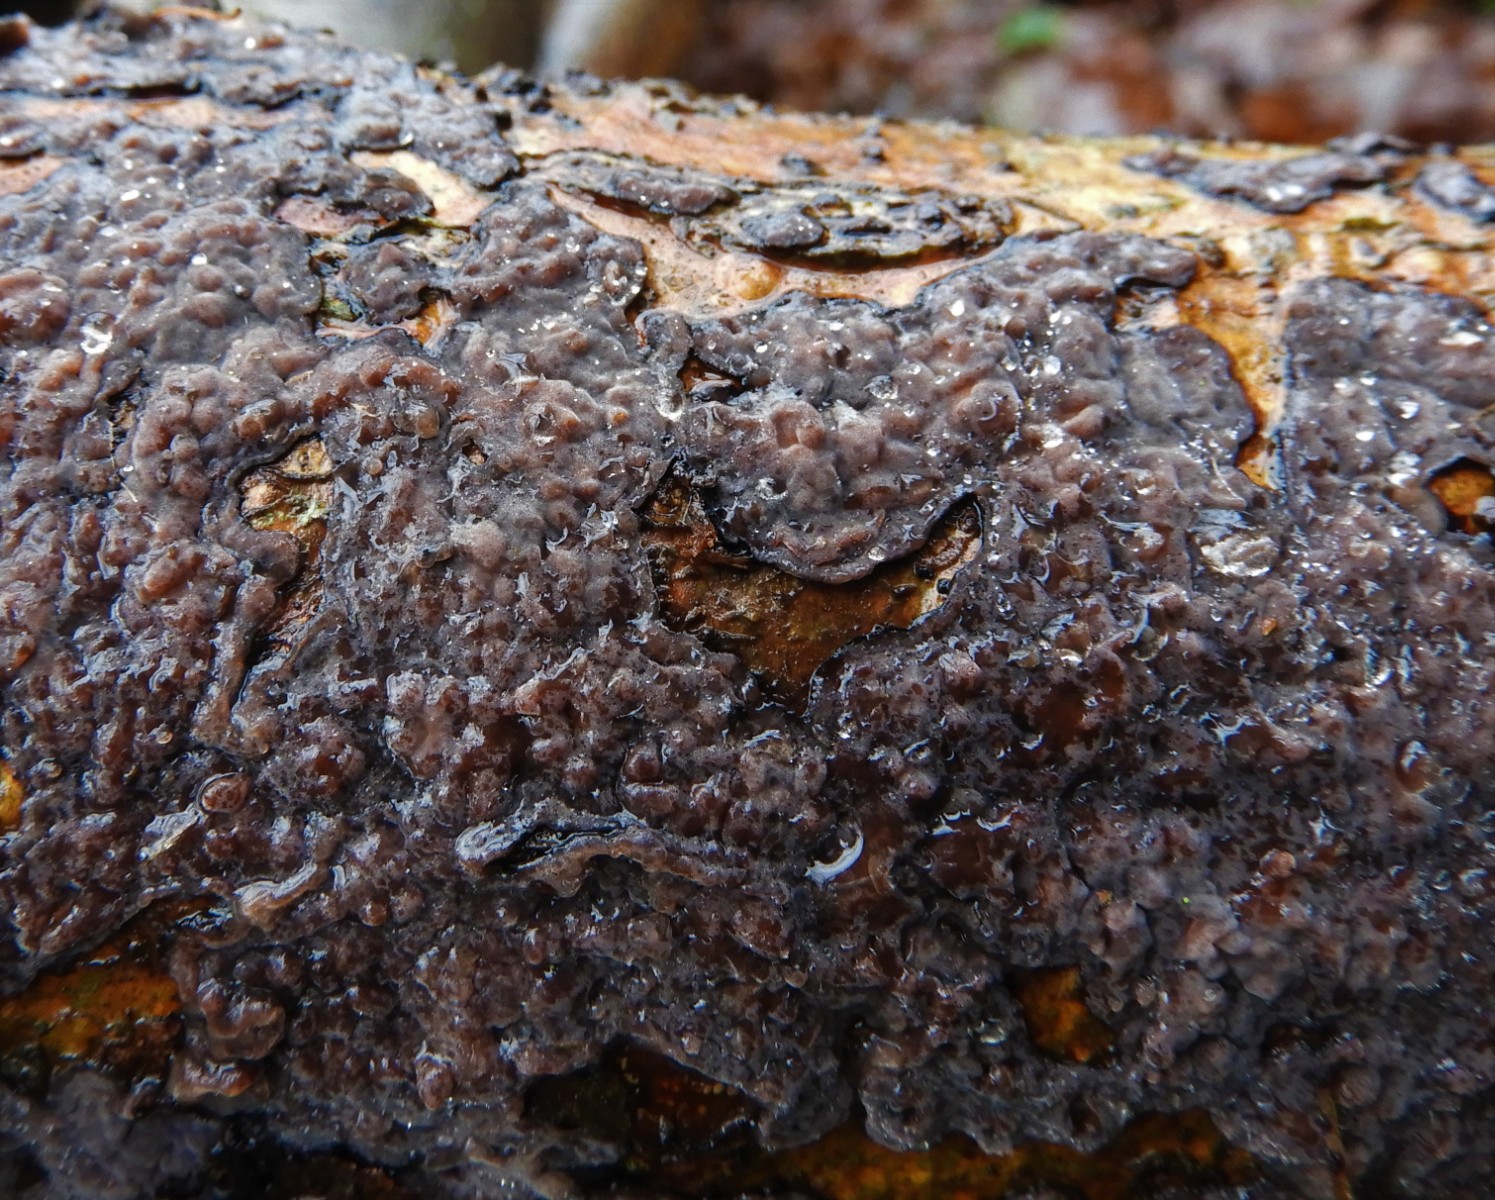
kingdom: Fungi
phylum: Basidiomycota
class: Agaricomycetes
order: Russulales
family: Peniophoraceae
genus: Peniophora
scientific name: Peniophora quercina
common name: ege-voksskind
